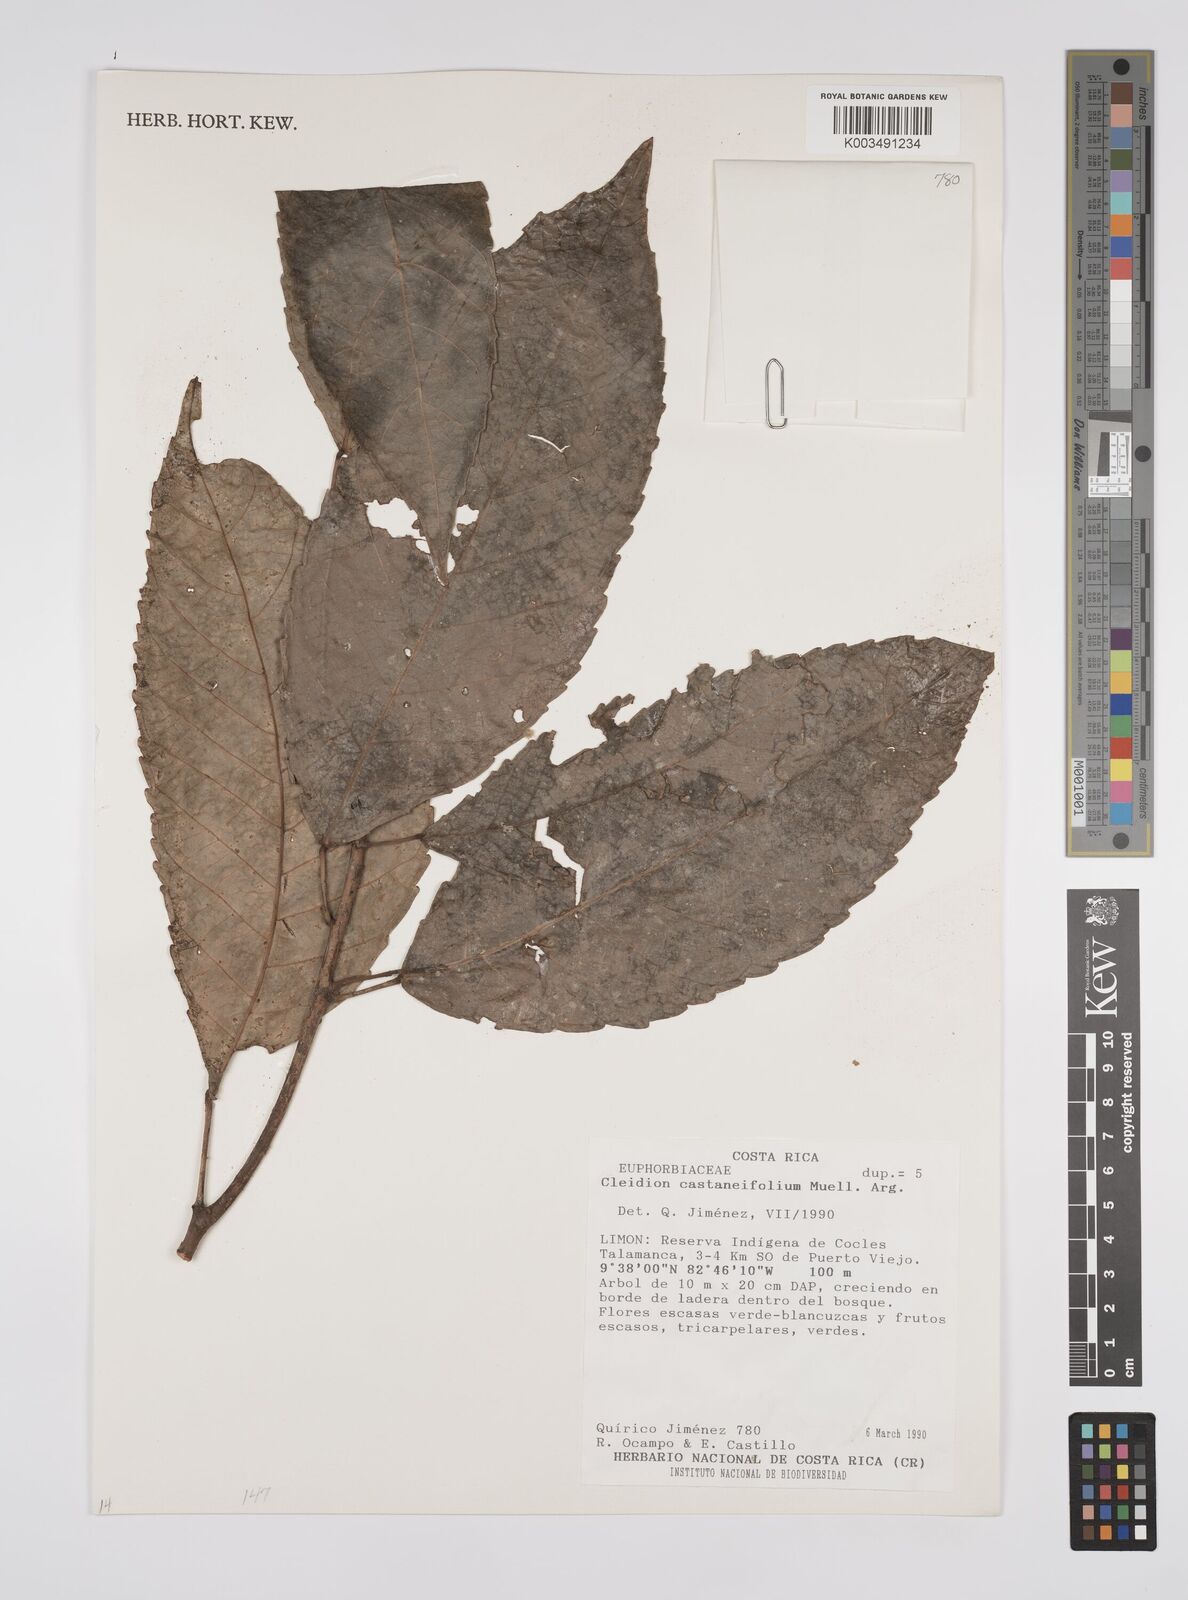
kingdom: Plantae
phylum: Tracheophyta
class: Magnoliopsida
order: Malpighiales
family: Euphorbiaceae
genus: Cleidion
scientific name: Cleidion castaneifolium
